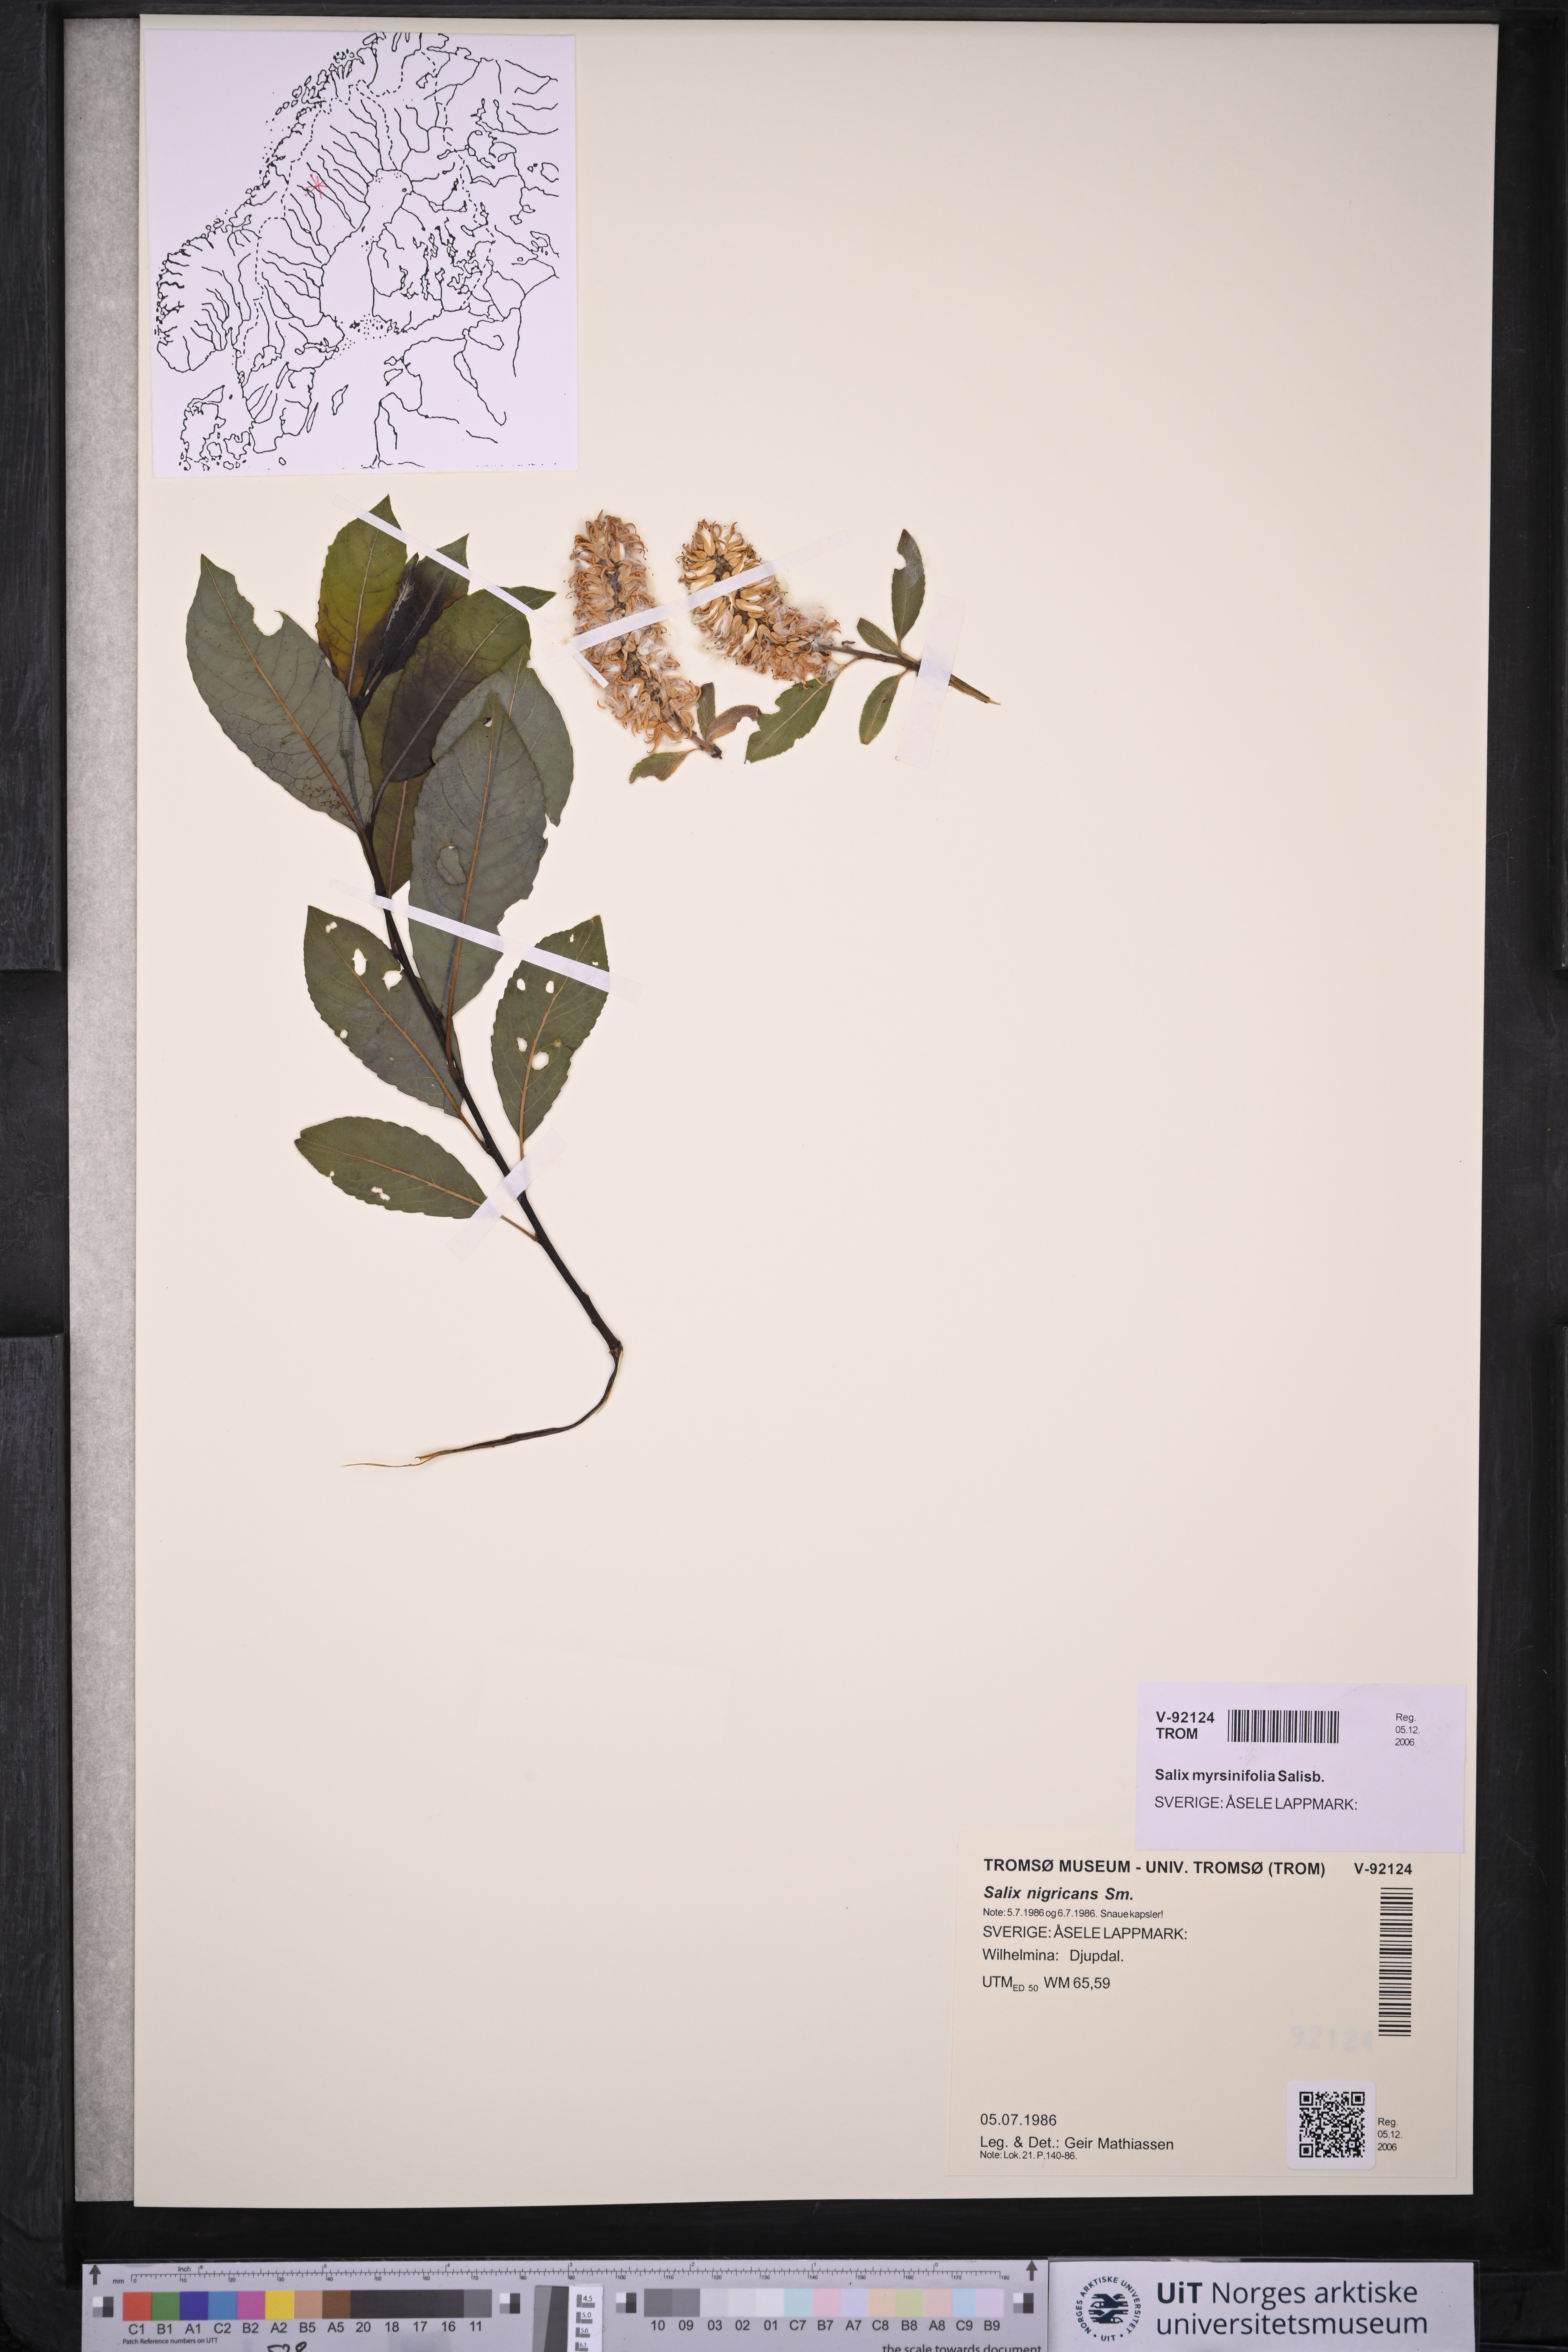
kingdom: Plantae
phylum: Tracheophyta
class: Magnoliopsida
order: Malpighiales
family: Salicaceae
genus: Salix
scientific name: Salix myrsinifolia
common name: Dark-leaved willow
